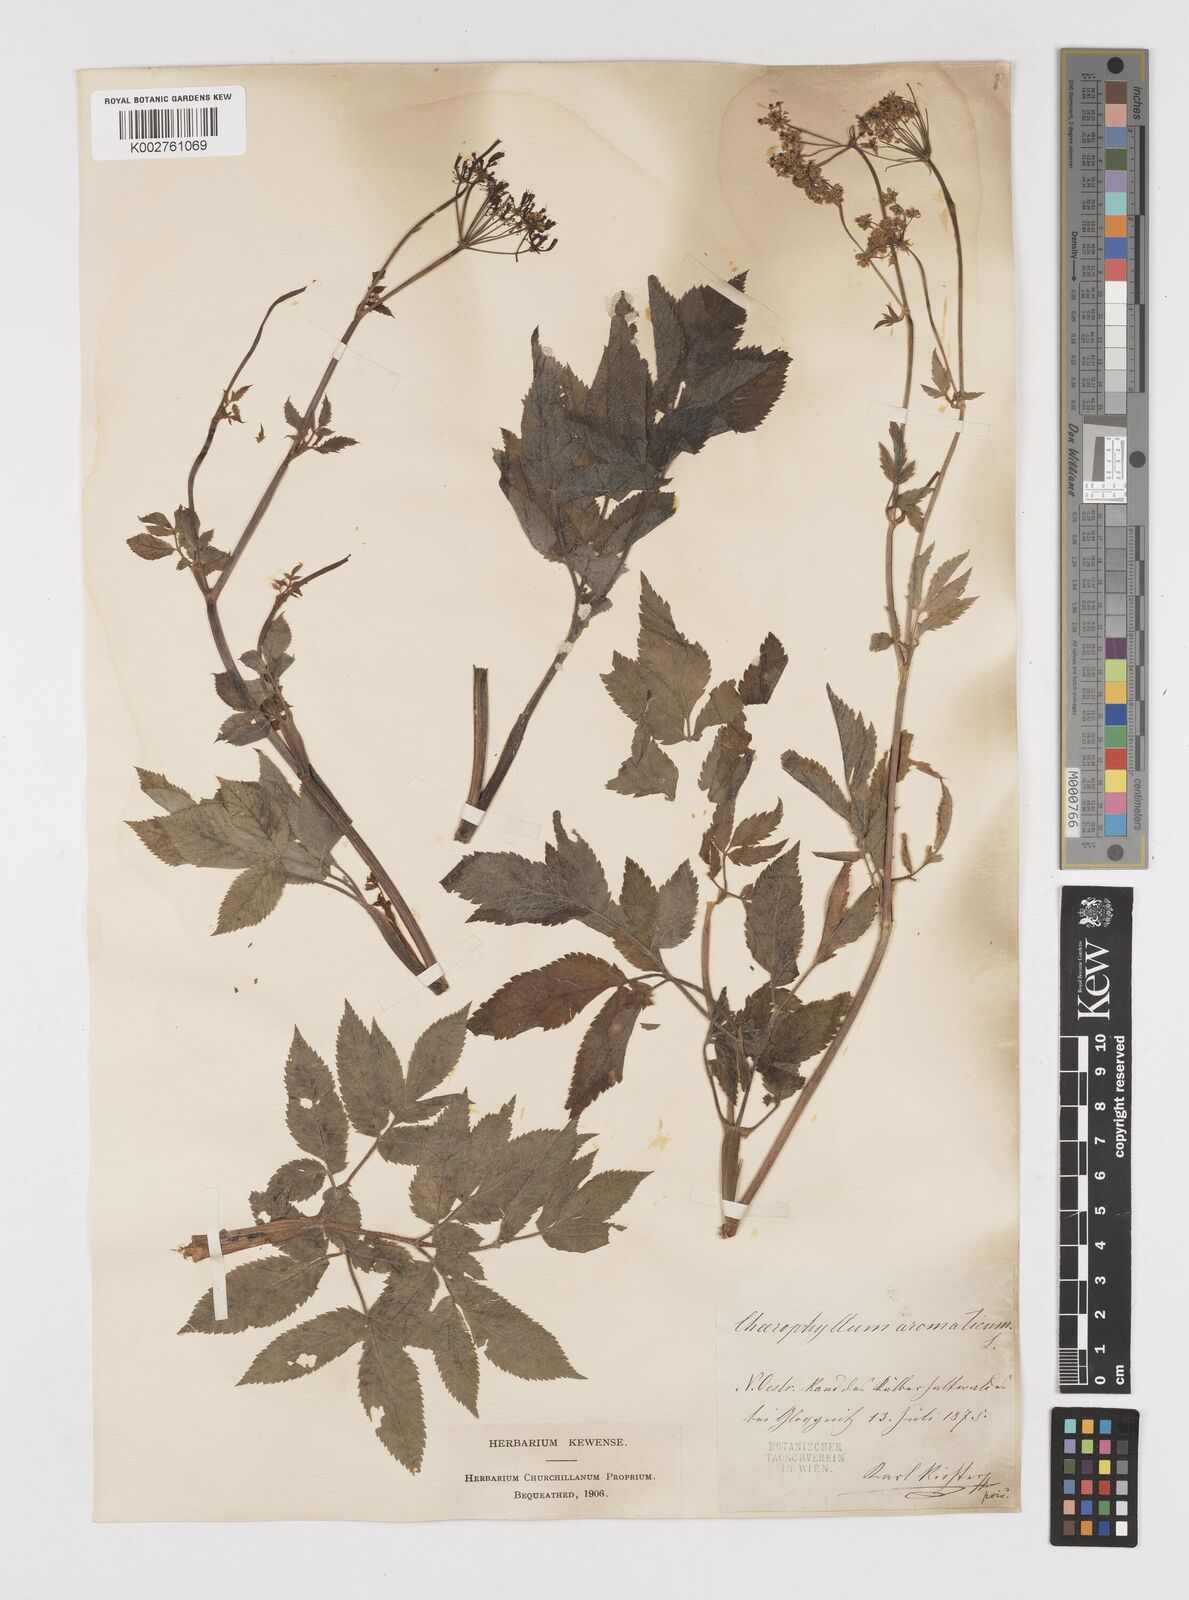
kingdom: Plantae
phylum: Tracheophyta
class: Magnoliopsida
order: Apiales
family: Apiaceae
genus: Chaerophyllum
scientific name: Chaerophyllum aromaticum
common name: Broadleaf chervil
